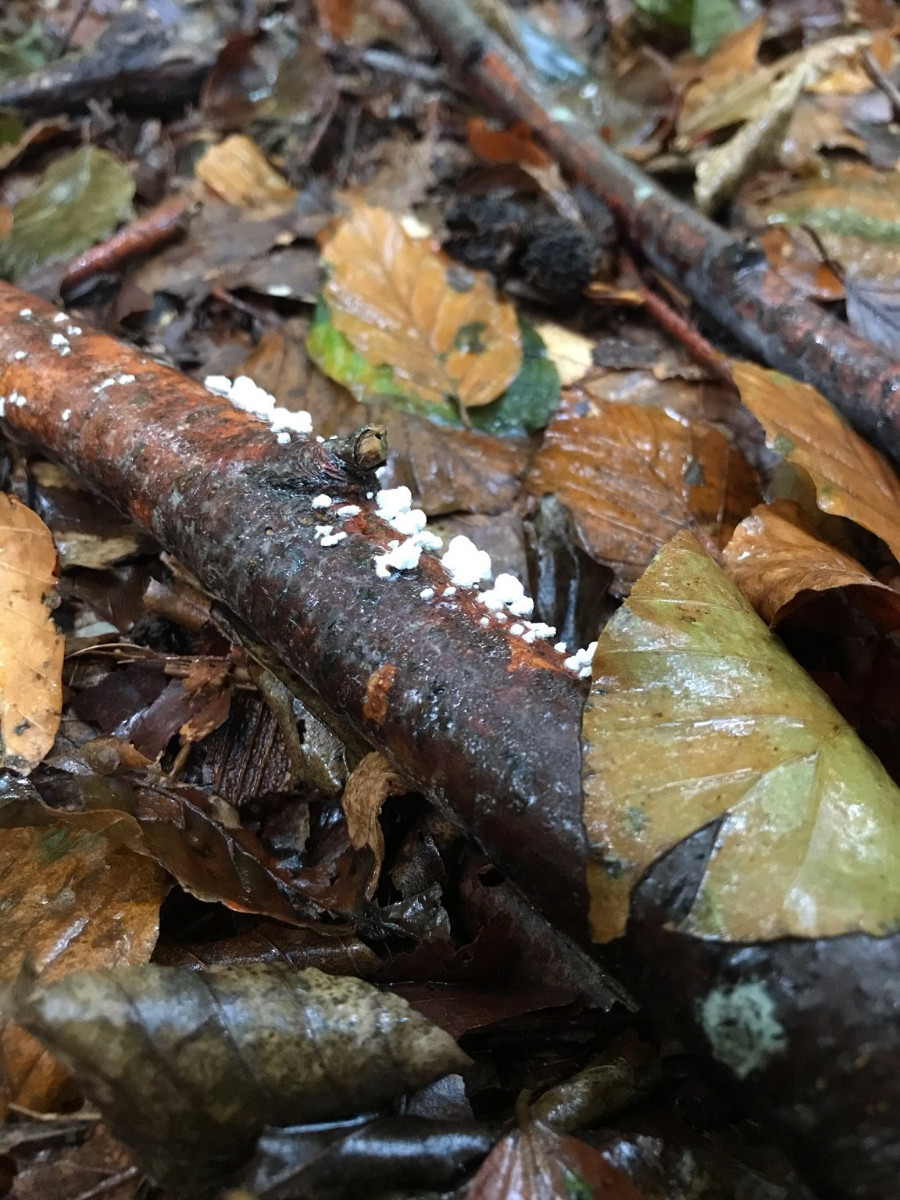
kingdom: Fungi
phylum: Basidiomycota
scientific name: Basidiomycota
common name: basidiesvampe
